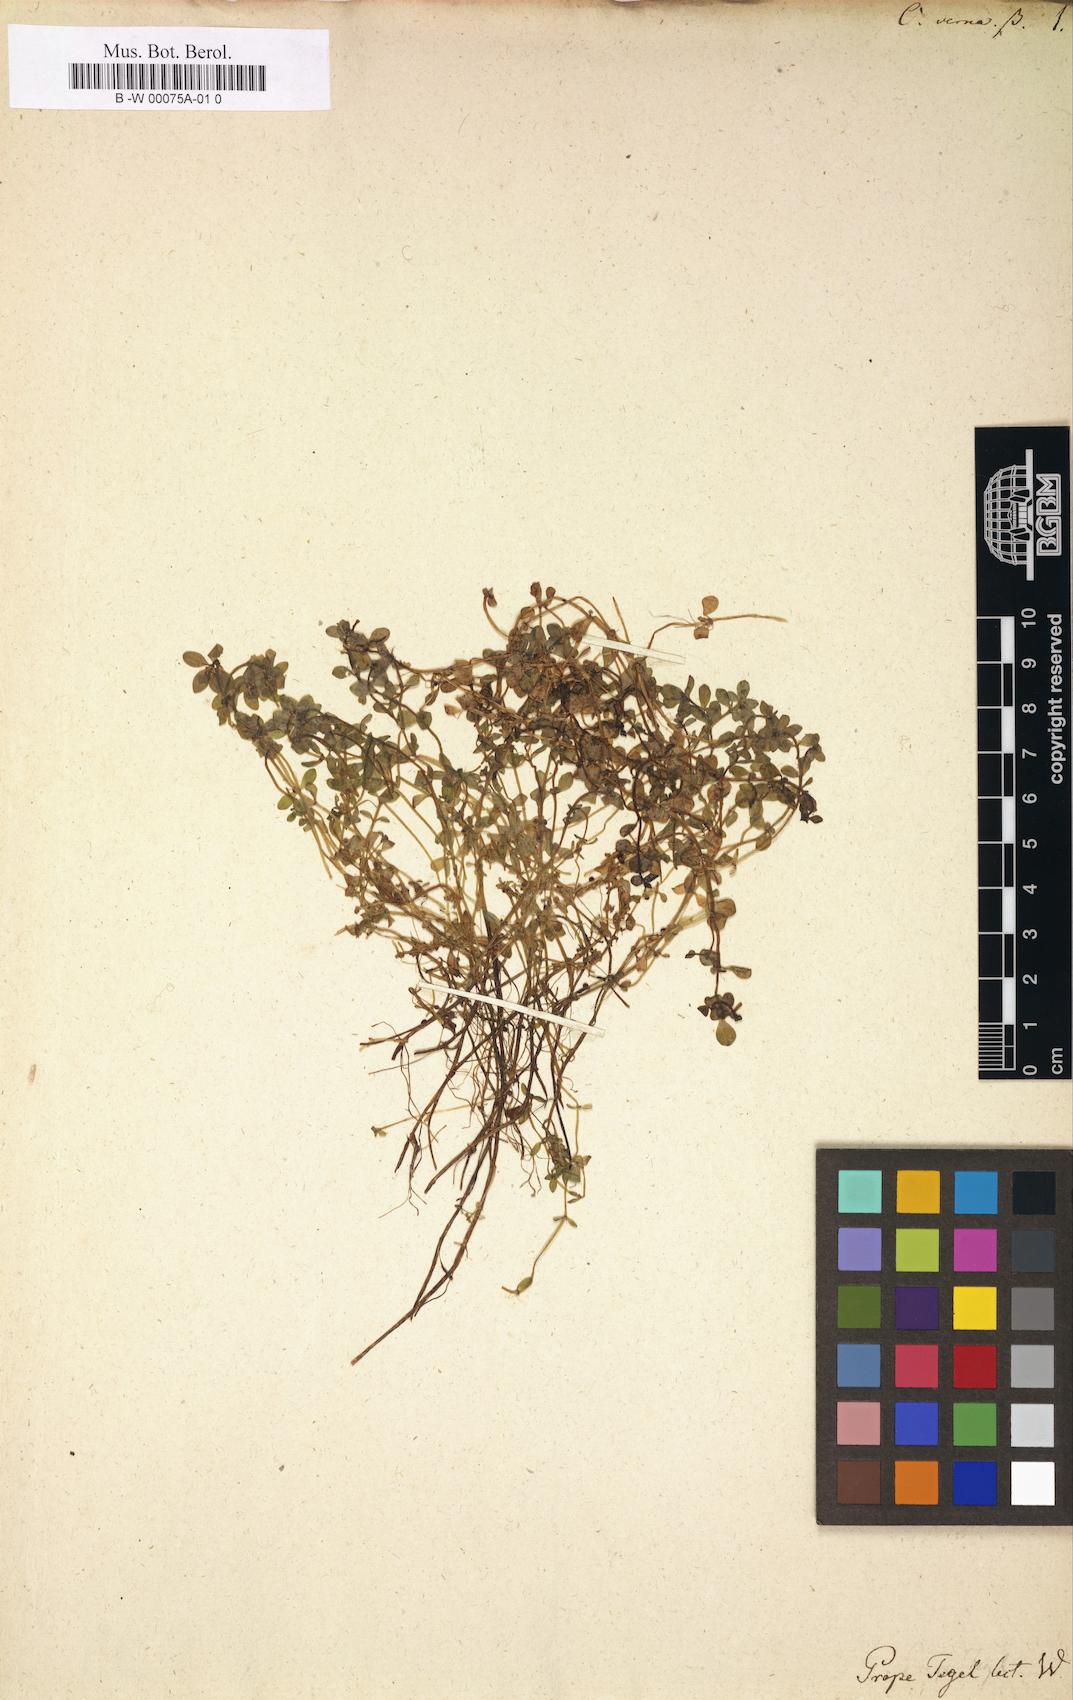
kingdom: Plantae
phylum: Tracheophyta
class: Magnoliopsida
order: Lamiales
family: Plantaginaceae
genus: Callitriche
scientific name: Callitriche
